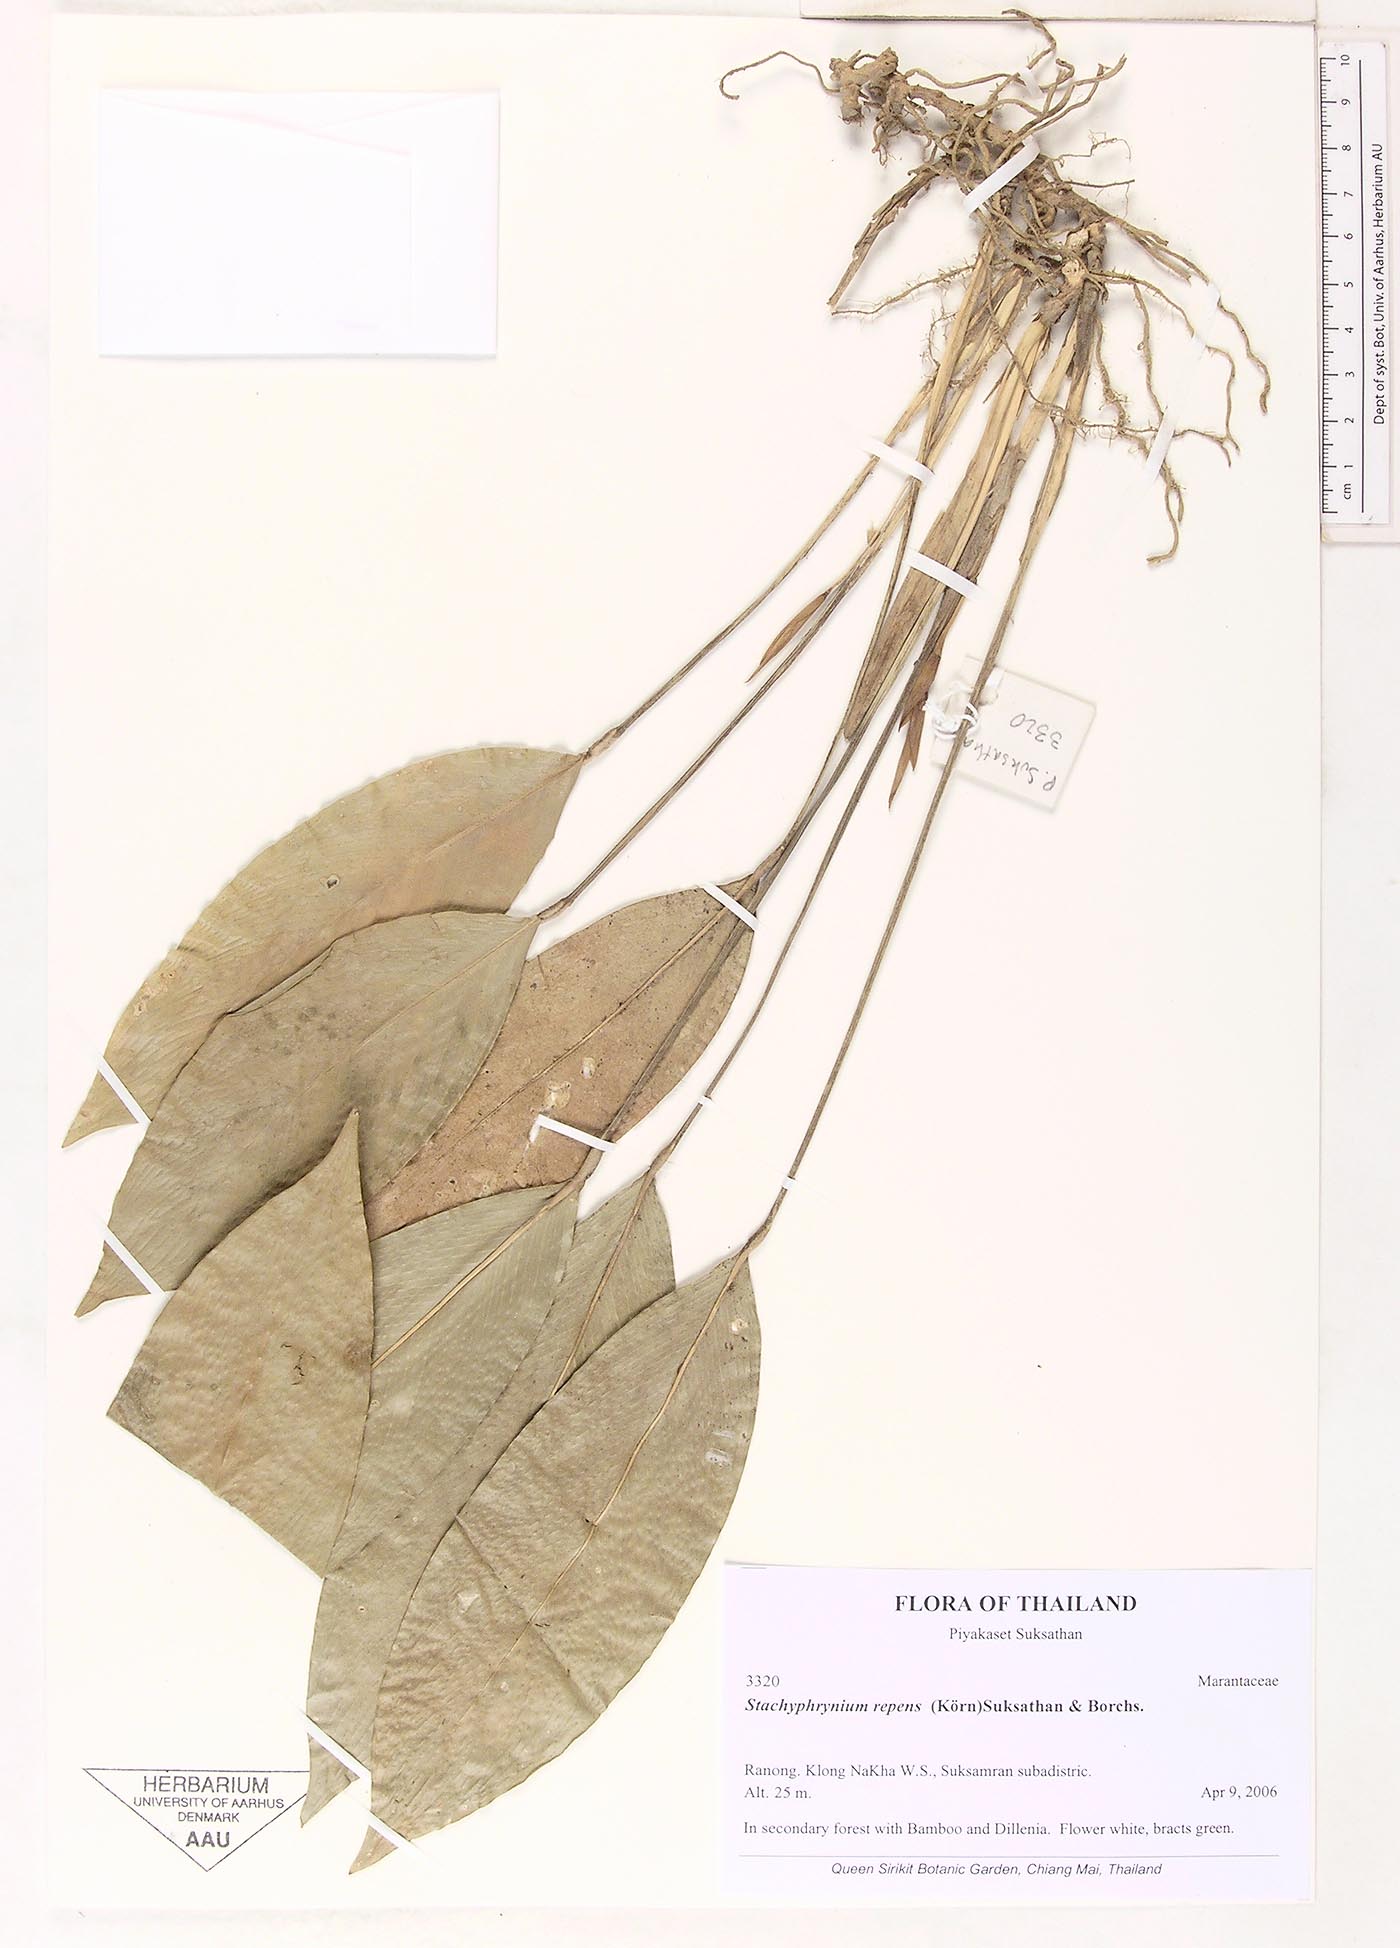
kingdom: Plantae
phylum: Tracheophyta
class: Liliopsida
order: Zingiberales
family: Marantaceae
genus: Stachyphrynium
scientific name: Stachyphrynium repens
